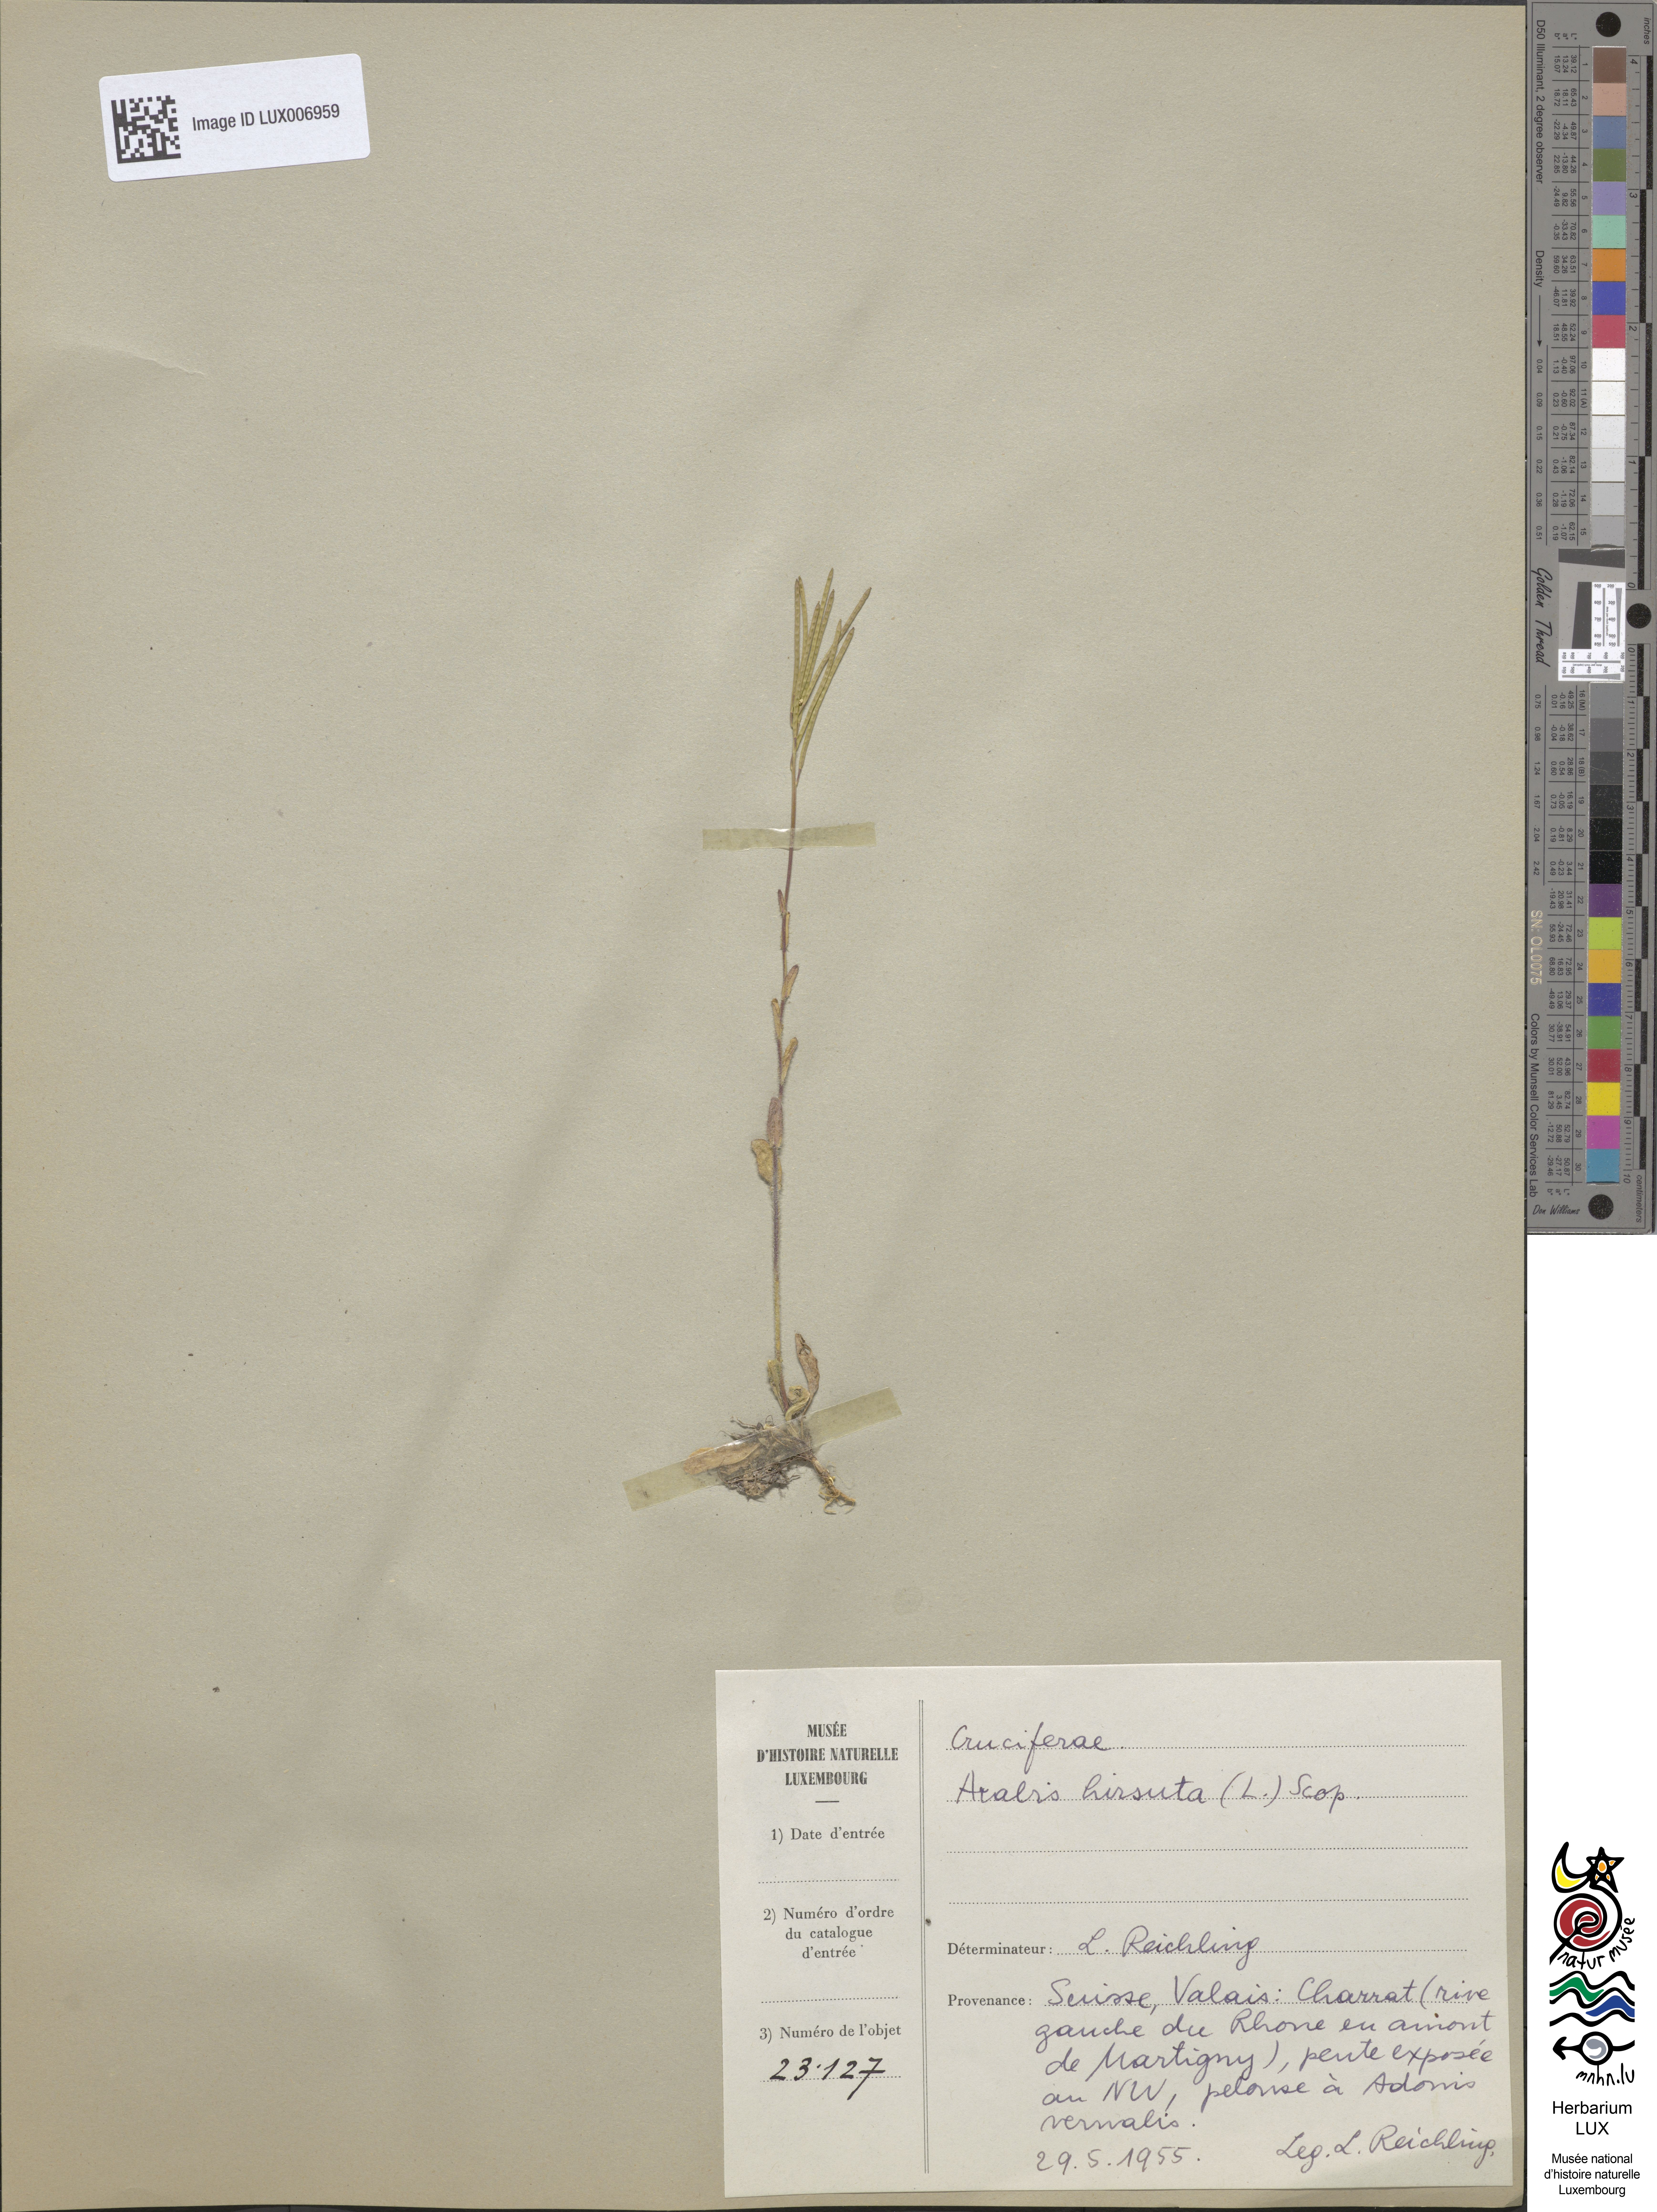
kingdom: Plantae
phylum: Tracheophyta
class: Magnoliopsida
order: Brassicales
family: Brassicaceae
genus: Arabis
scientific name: Arabis hirsuta
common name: Hairy rock-cress
